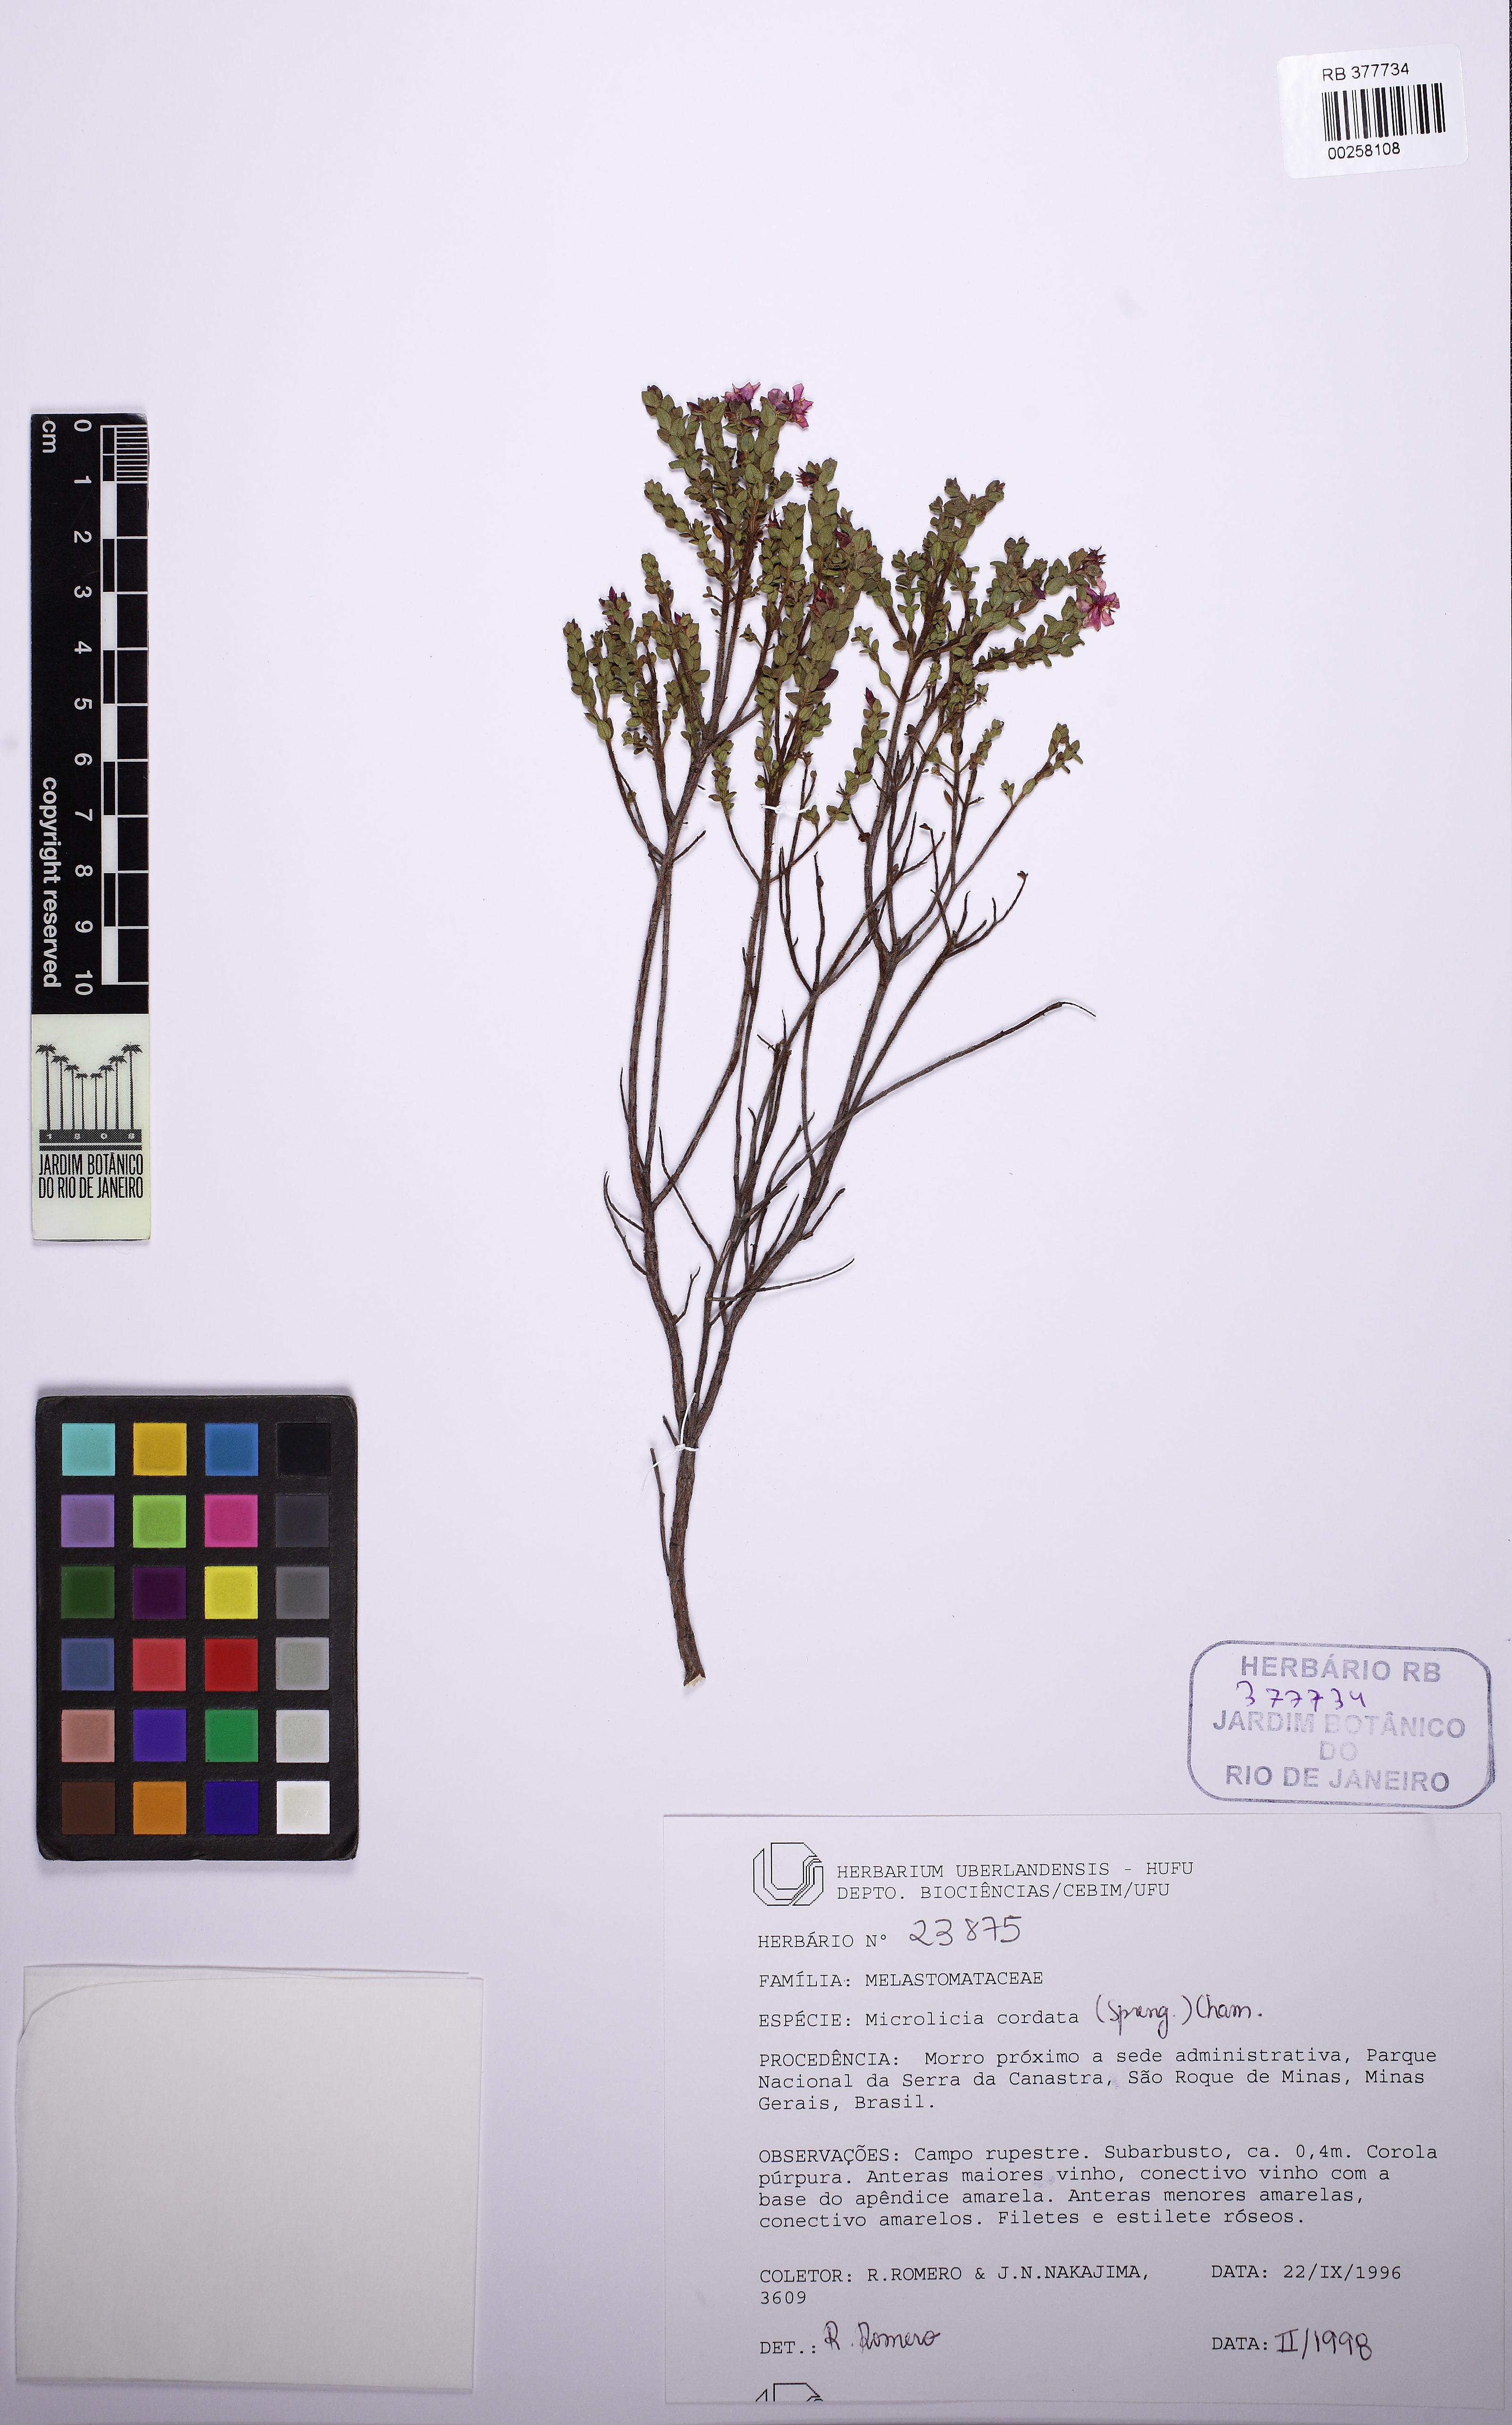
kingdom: Plantae
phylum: Tracheophyta
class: Magnoliopsida
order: Myrtales
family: Melastomataceae
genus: Microlicia
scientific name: Microlicia cordata
